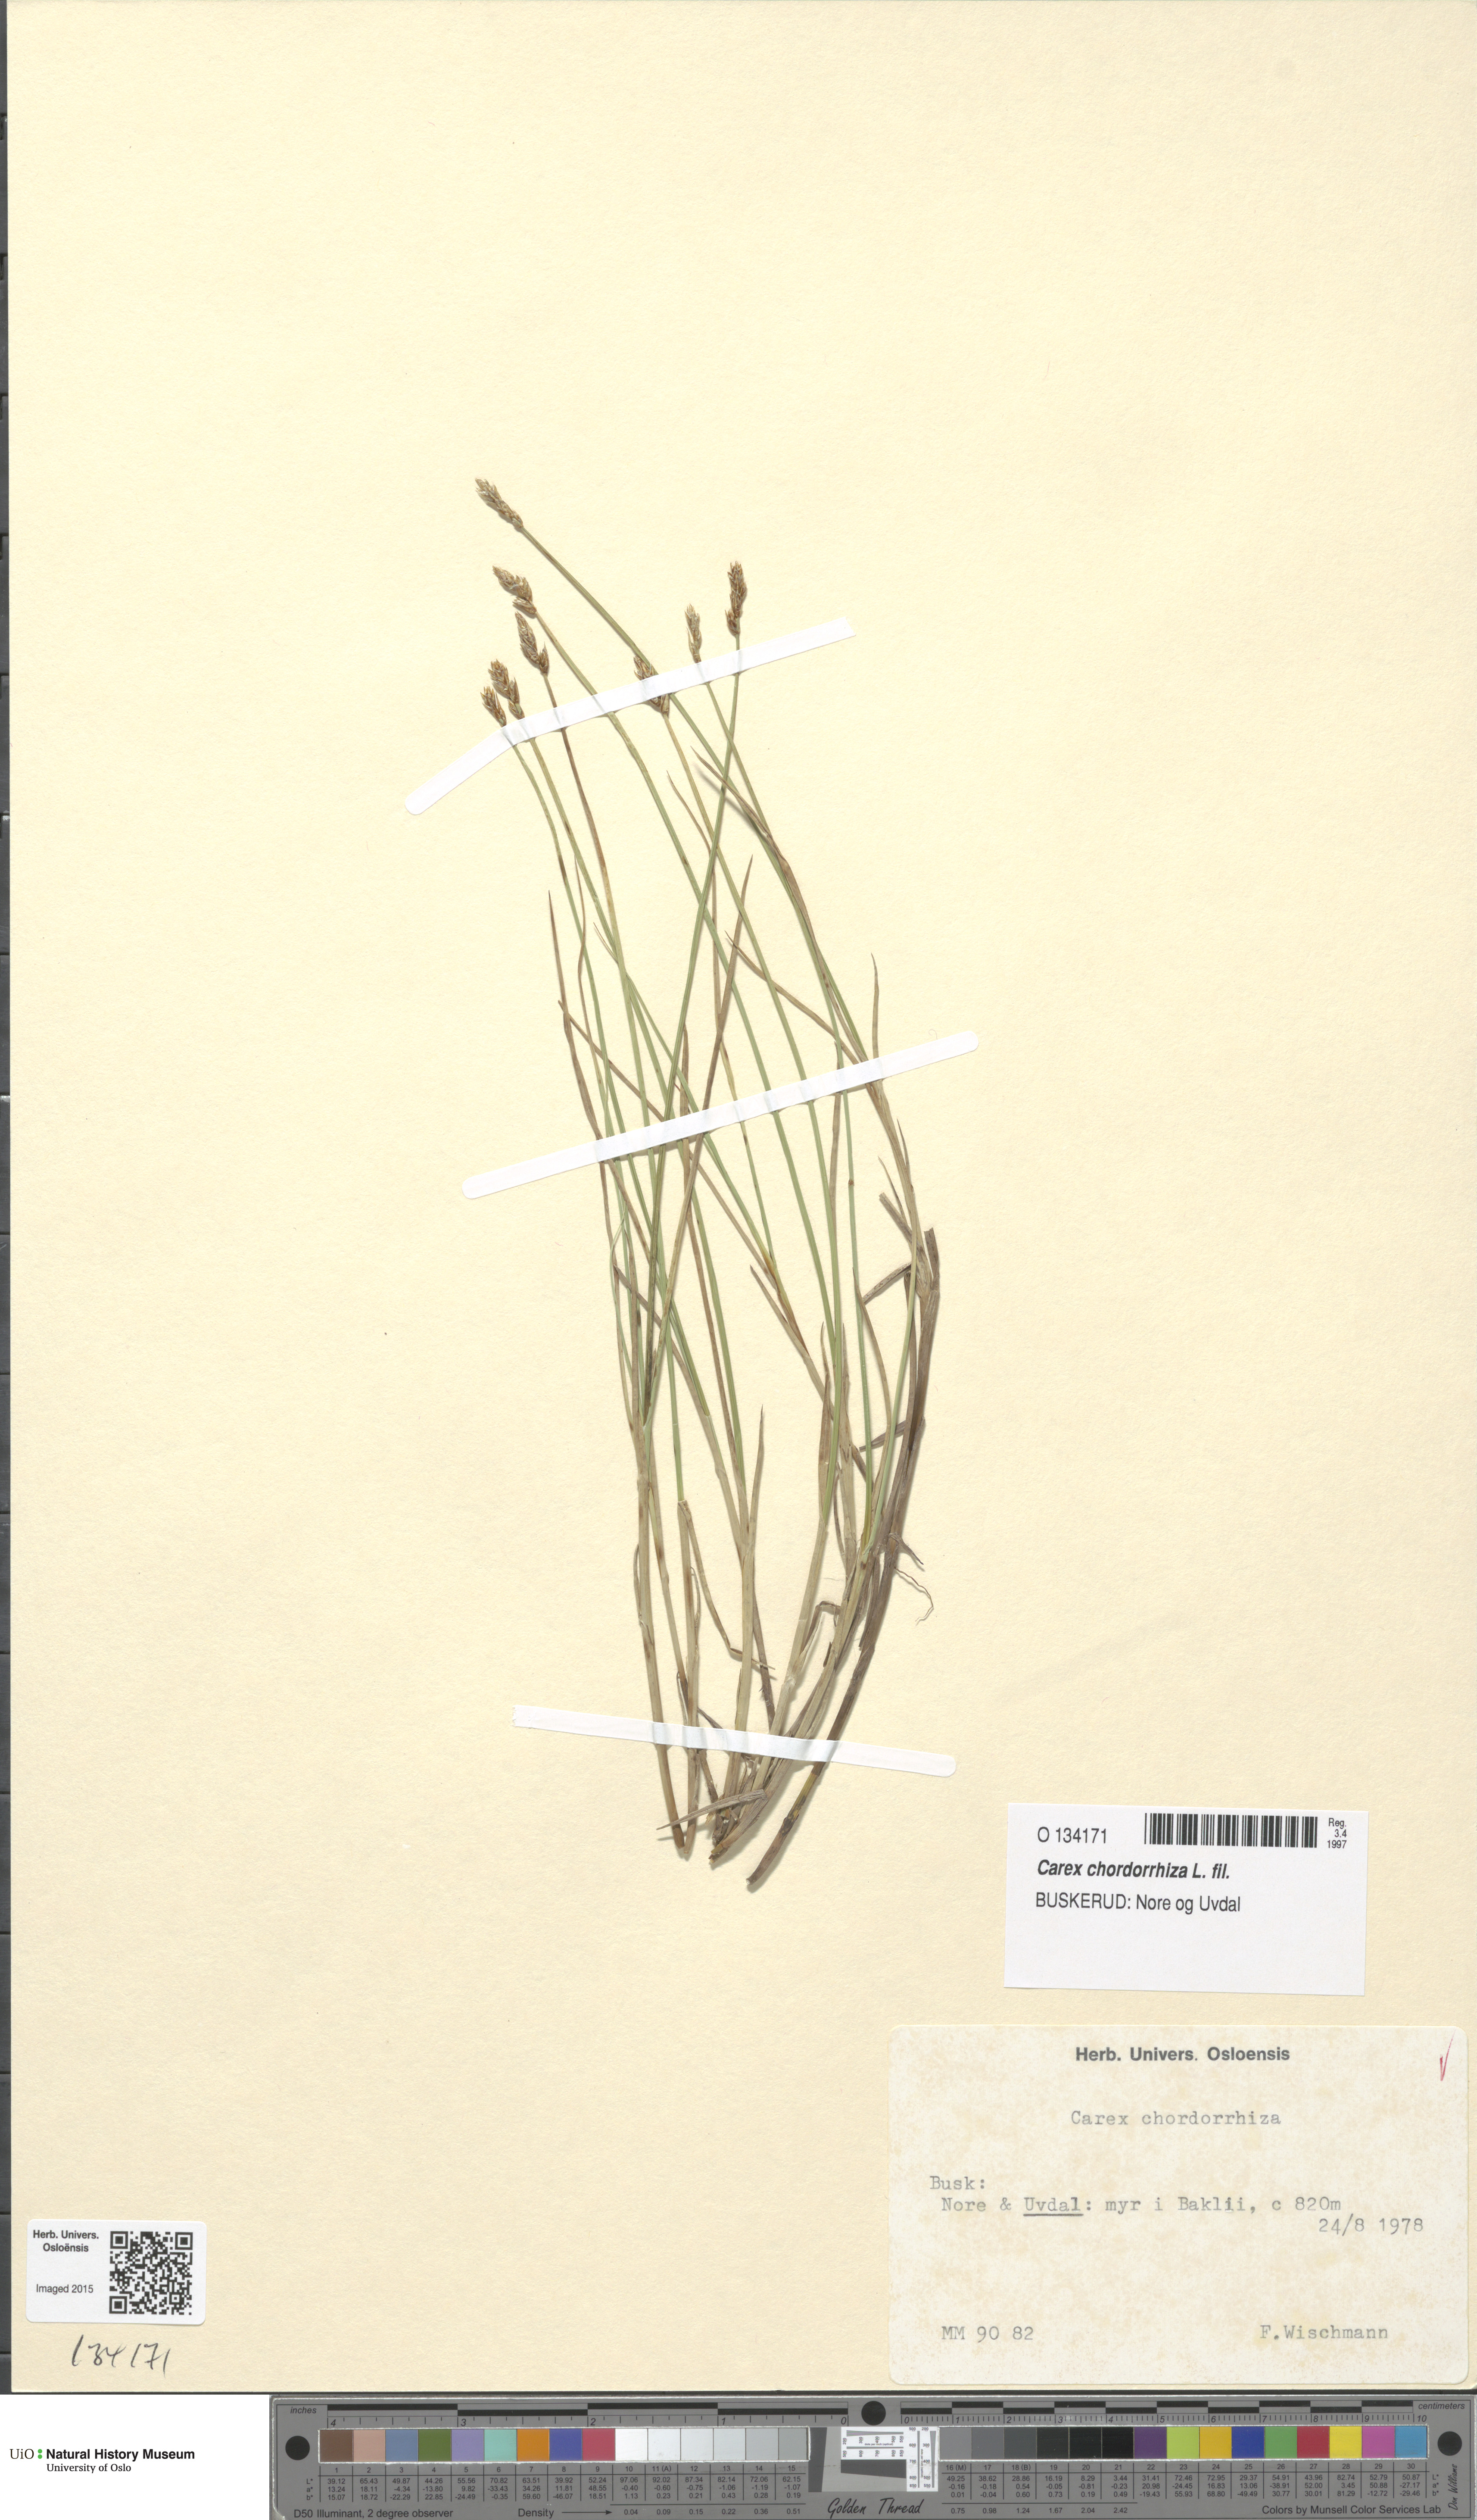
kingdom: Plantae
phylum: Tracheophyta
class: Liliopsida
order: Poales
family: Cyperaceae
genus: Carex
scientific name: Carex chordorrhiza
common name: String sedge
